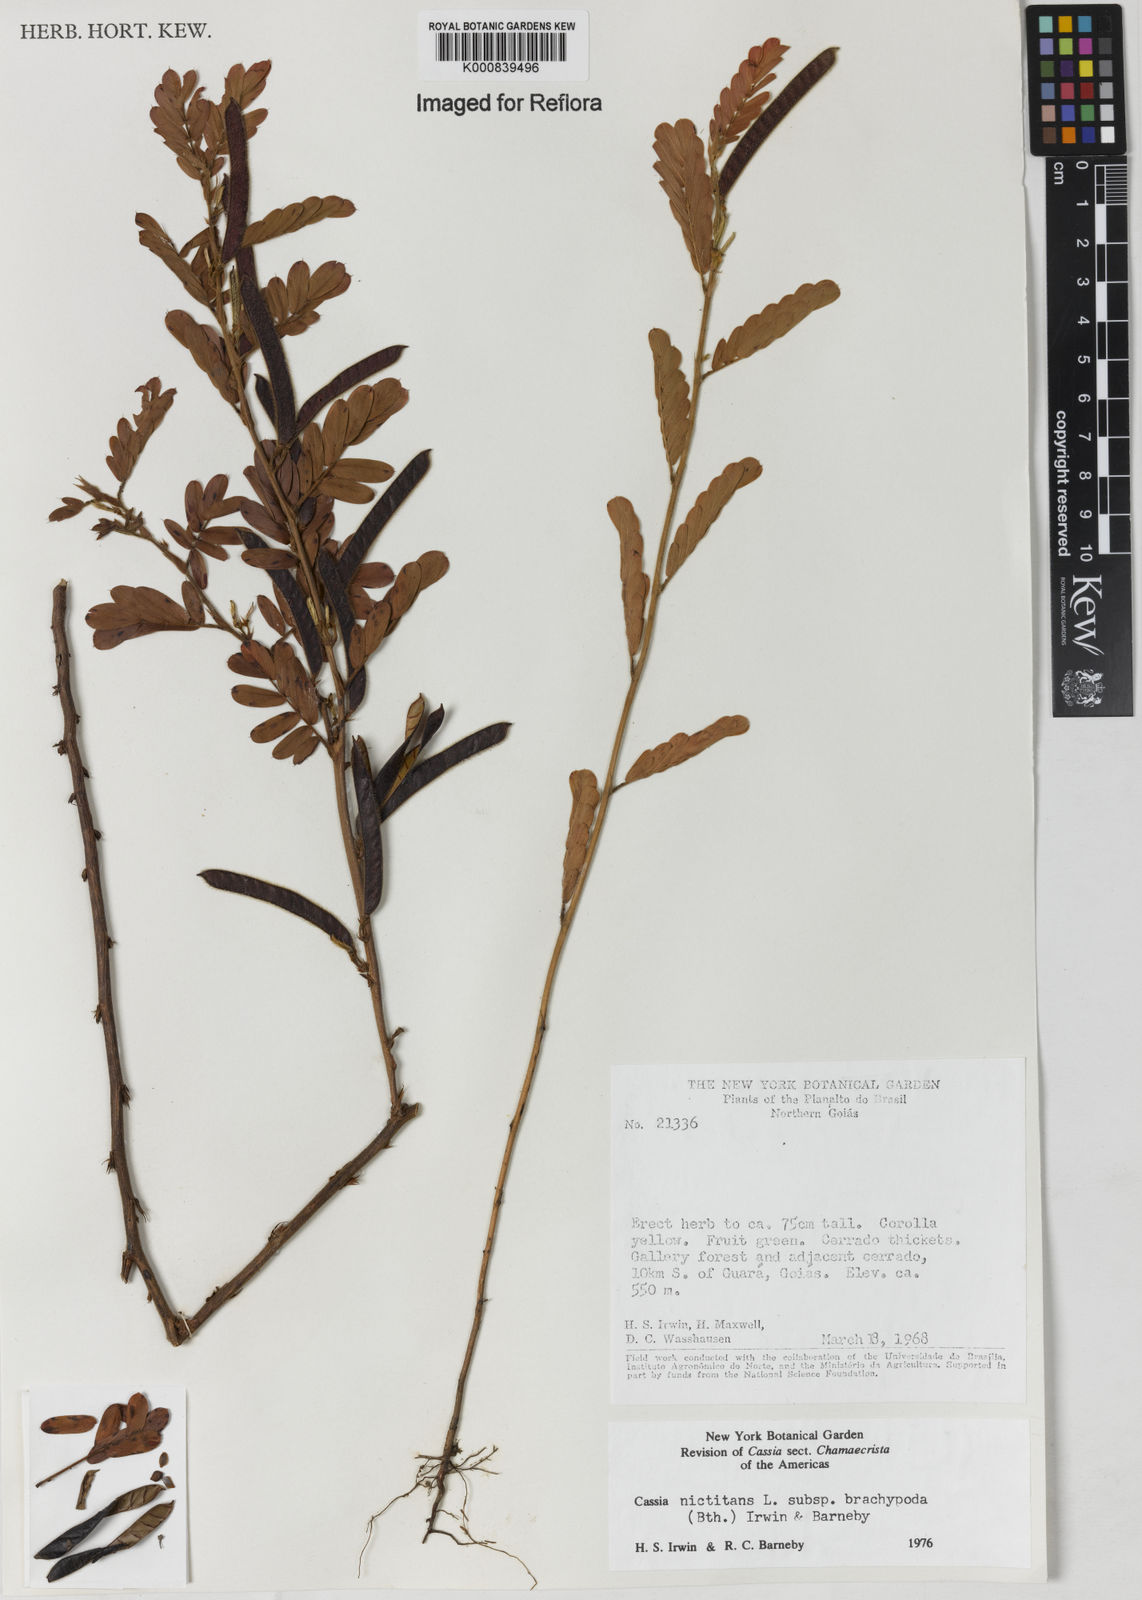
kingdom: Plantae
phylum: Tracheophyta
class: Magnoliopsida
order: Fabales
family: Fabaceae
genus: Chamaecrista
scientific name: Chamaecrista nictitans
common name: Sensitive cassia
